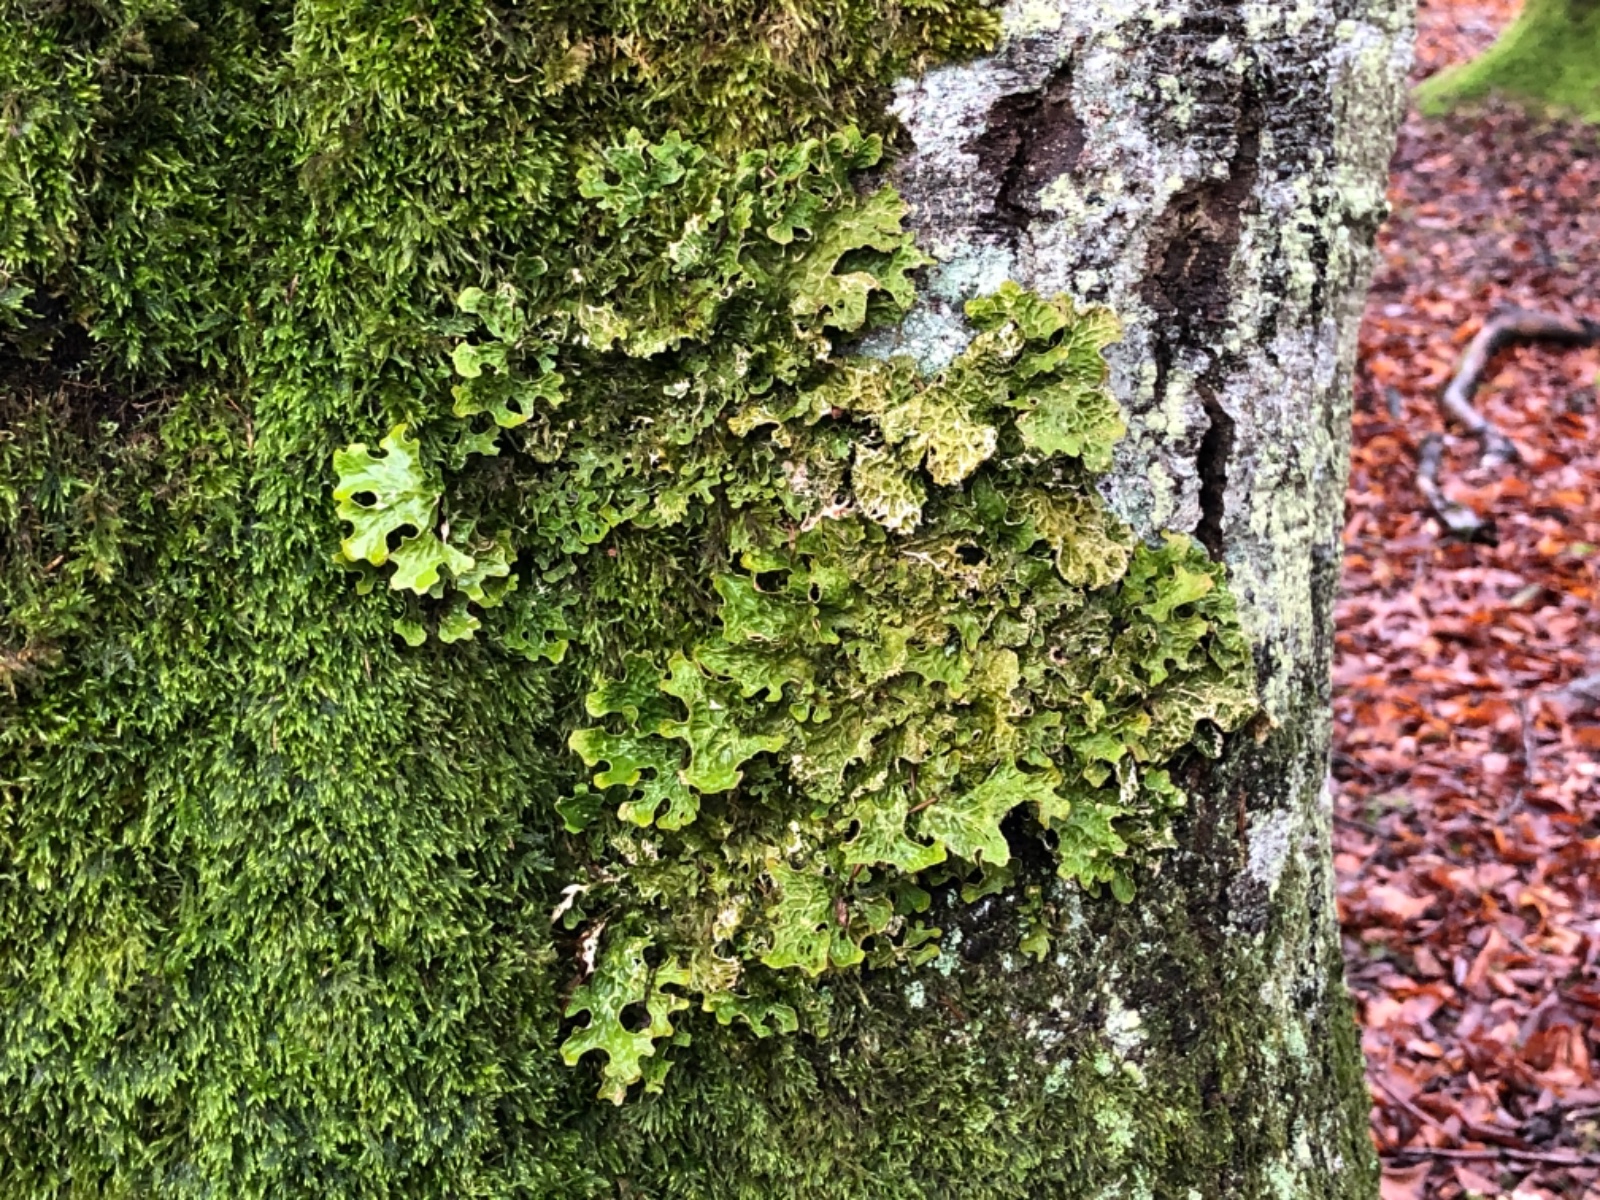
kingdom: Fungi
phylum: Ascomycota
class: Lecanoromycetes
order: Peltigerales
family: Lobariaceae
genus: Lobaria
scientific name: Lobaria pulmonaria
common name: almindelig lungelav
